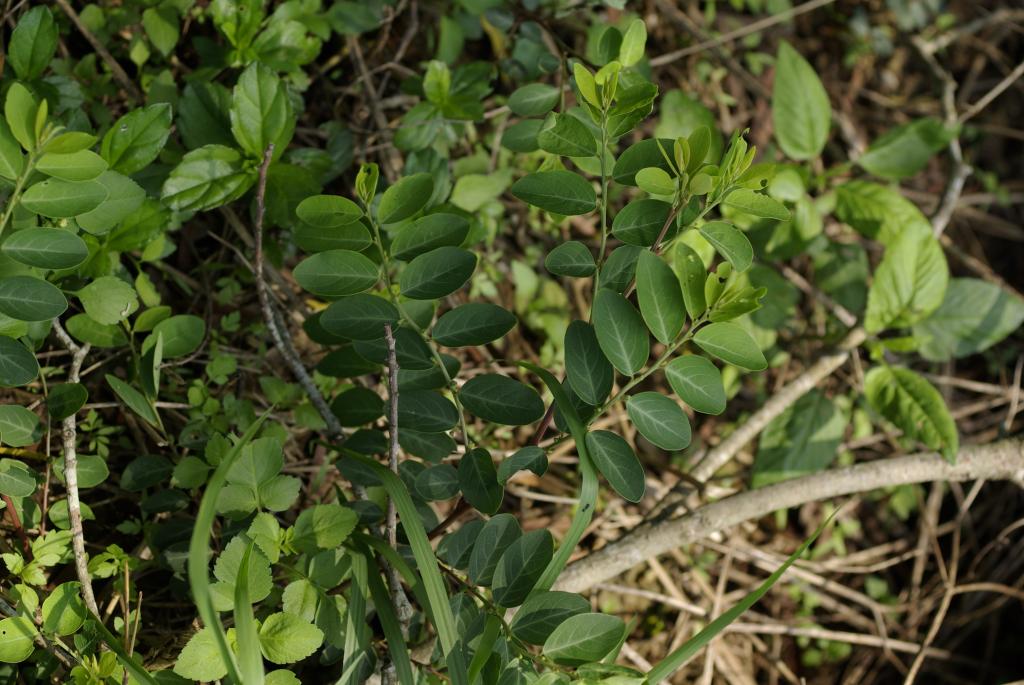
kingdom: Plantae
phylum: Tracheophyta
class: Magnoliopsida
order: Malpighiales
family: Phyllanthaceae
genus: Breynia
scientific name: Breynia officinalis
